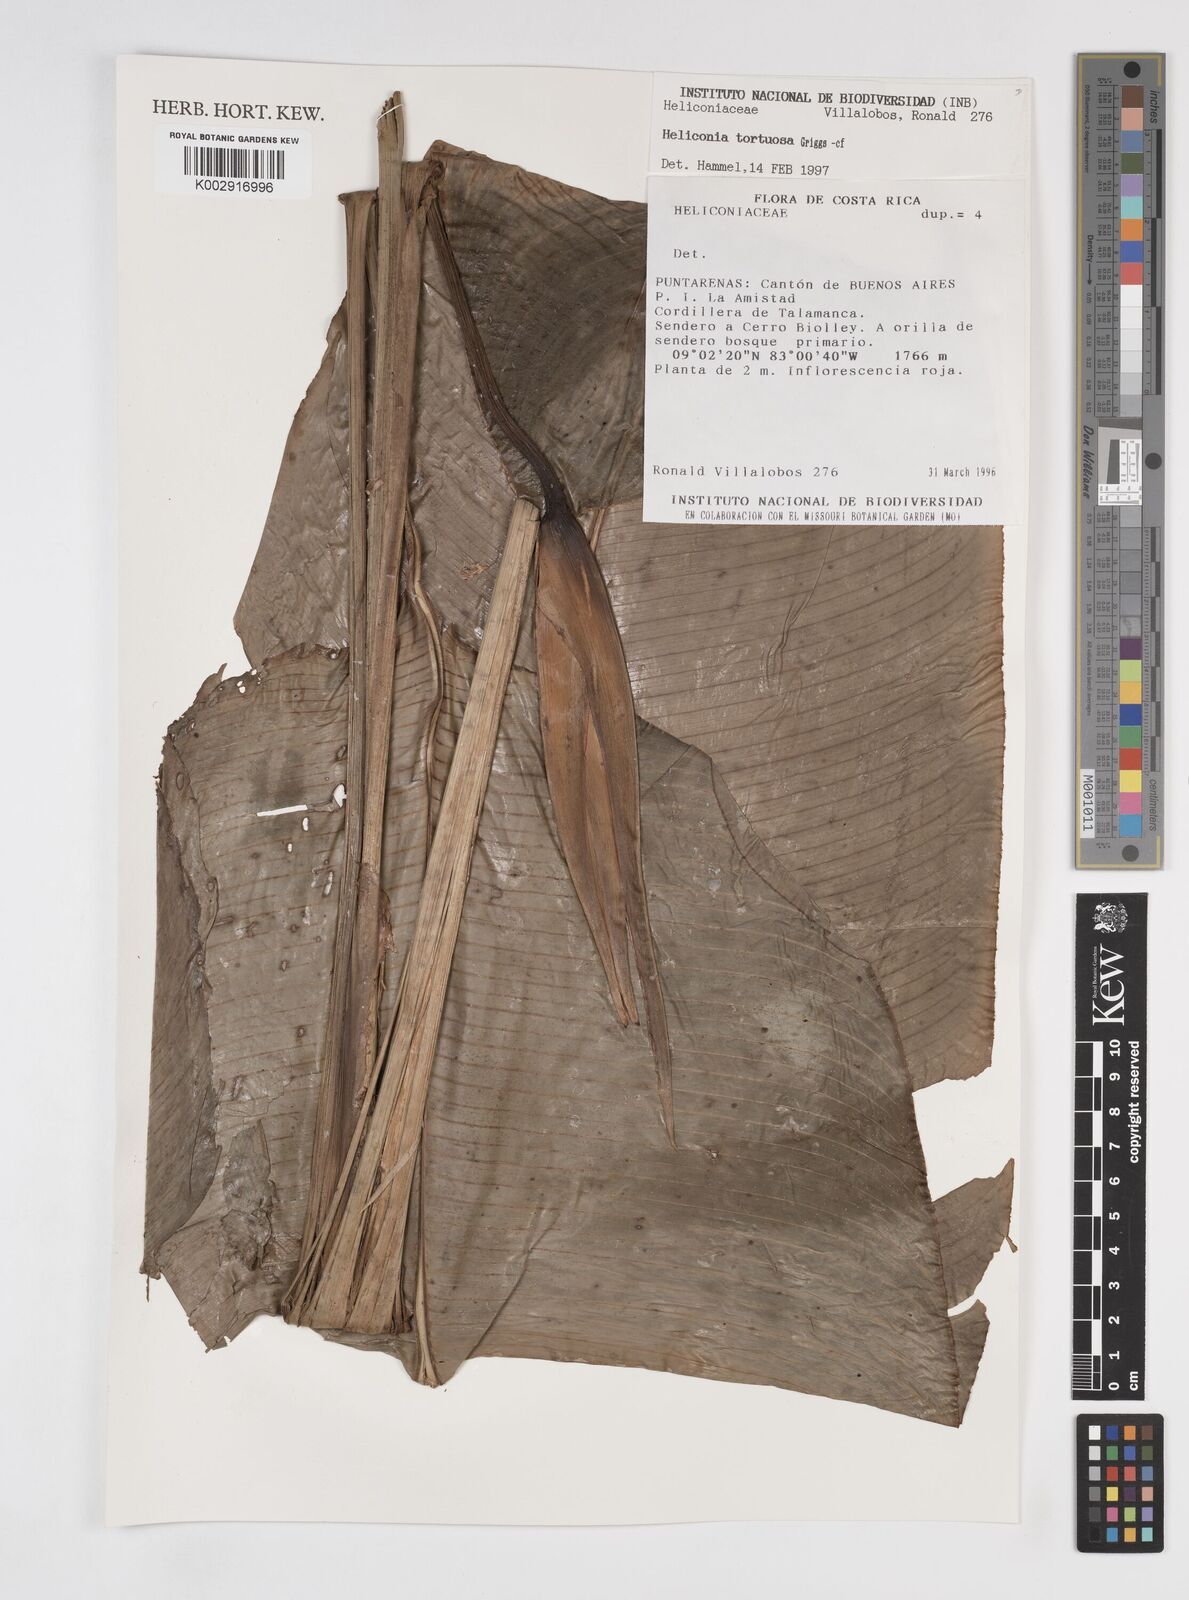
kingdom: Plantae
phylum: Tracheophyta
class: Liliopsida
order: Zingiberales
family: Heliconiaceae
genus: Heliconia
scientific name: Heliconia tortuosa
